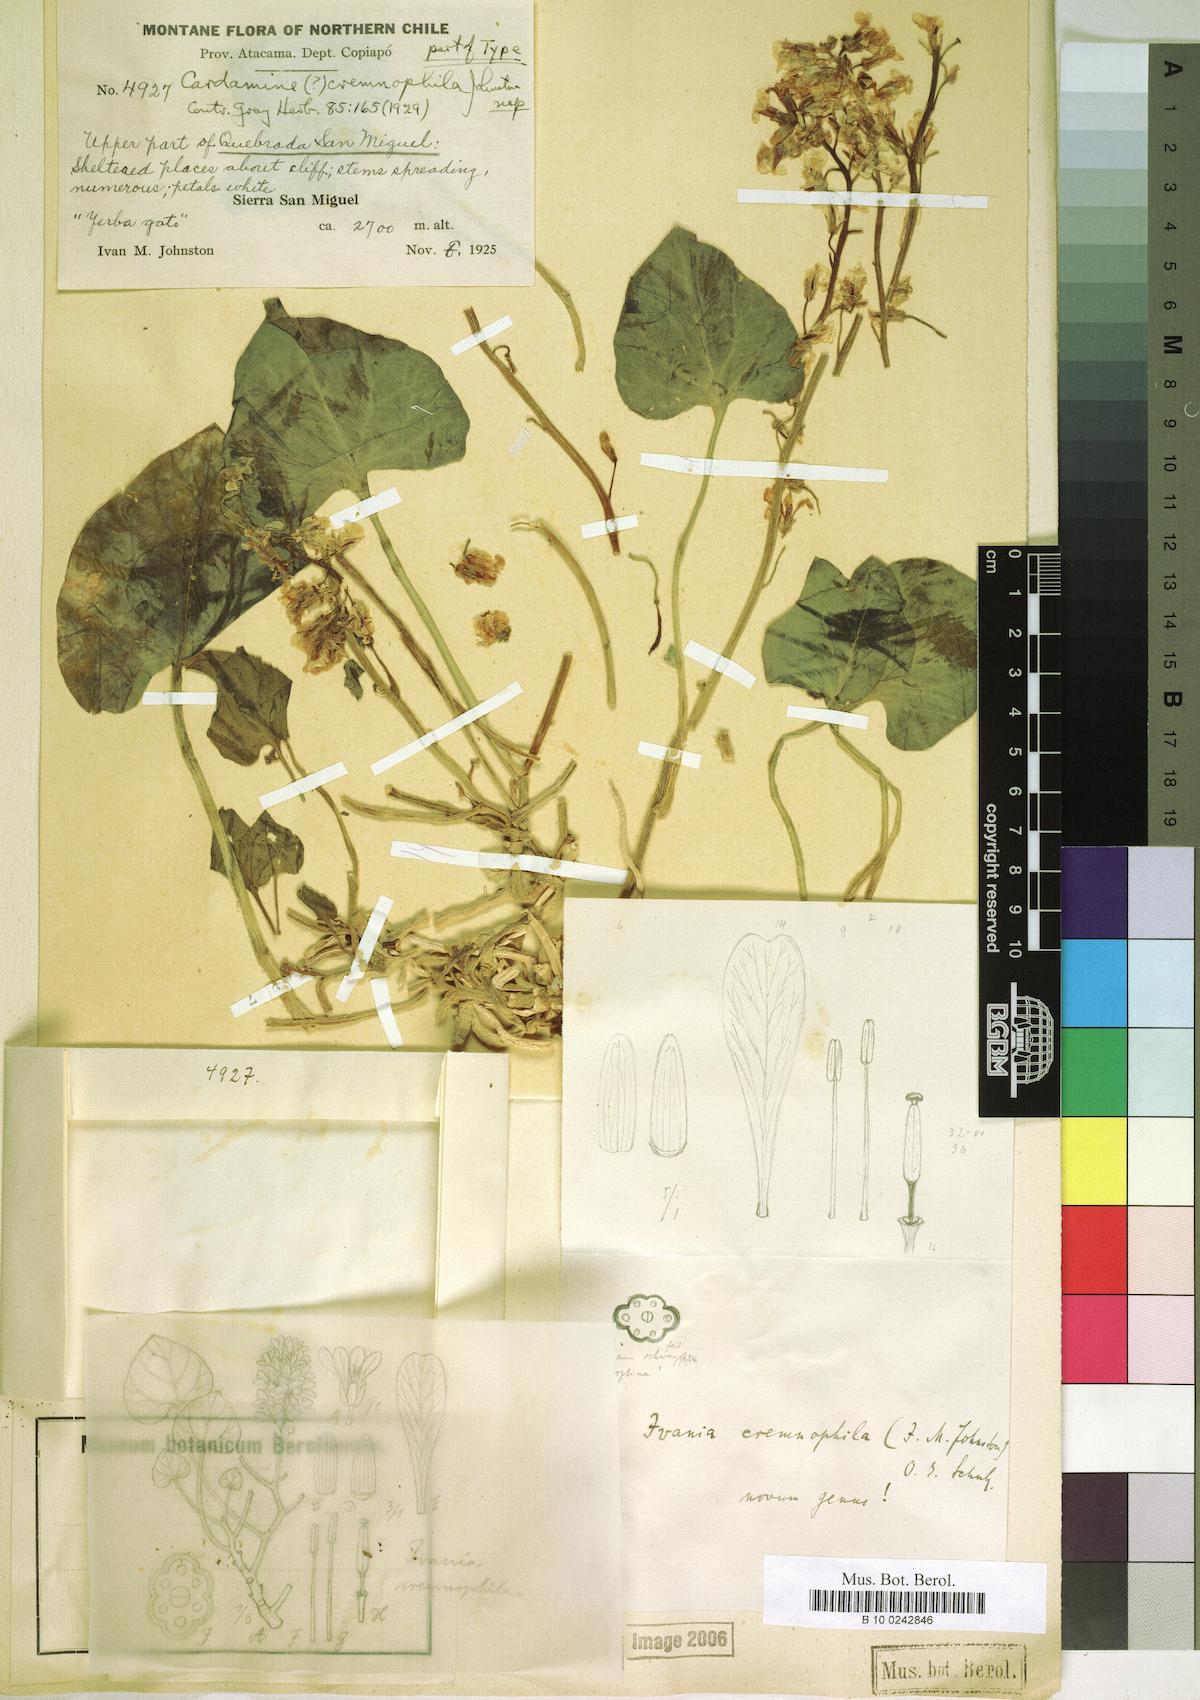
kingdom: Plantae
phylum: Tracheophyta
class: Magnoliopsida
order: Brassicales
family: Brassicaceae
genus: Ivania
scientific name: Ivania cremnophila
